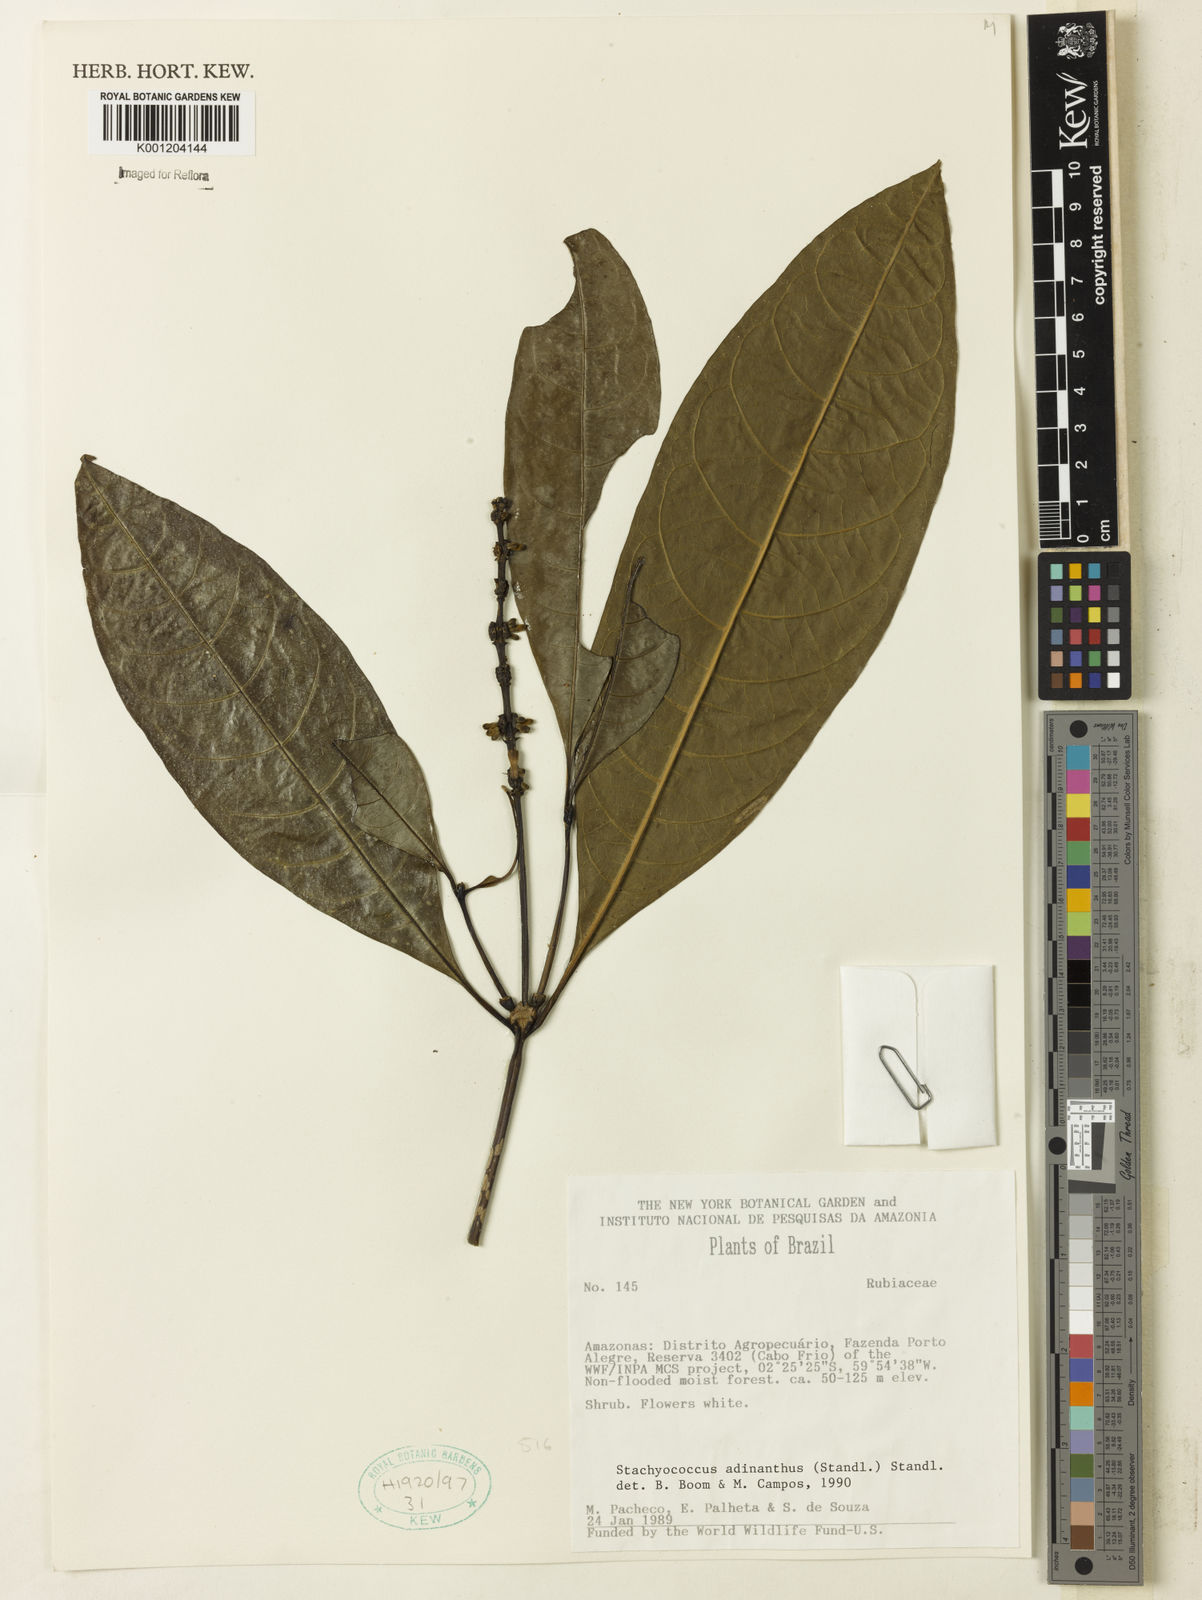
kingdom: Plantae
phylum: Tracheophyta
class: Magnoliopsida
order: Gentianales
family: Rubiaceae
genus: Carapichea
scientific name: Carapichea adinantha
